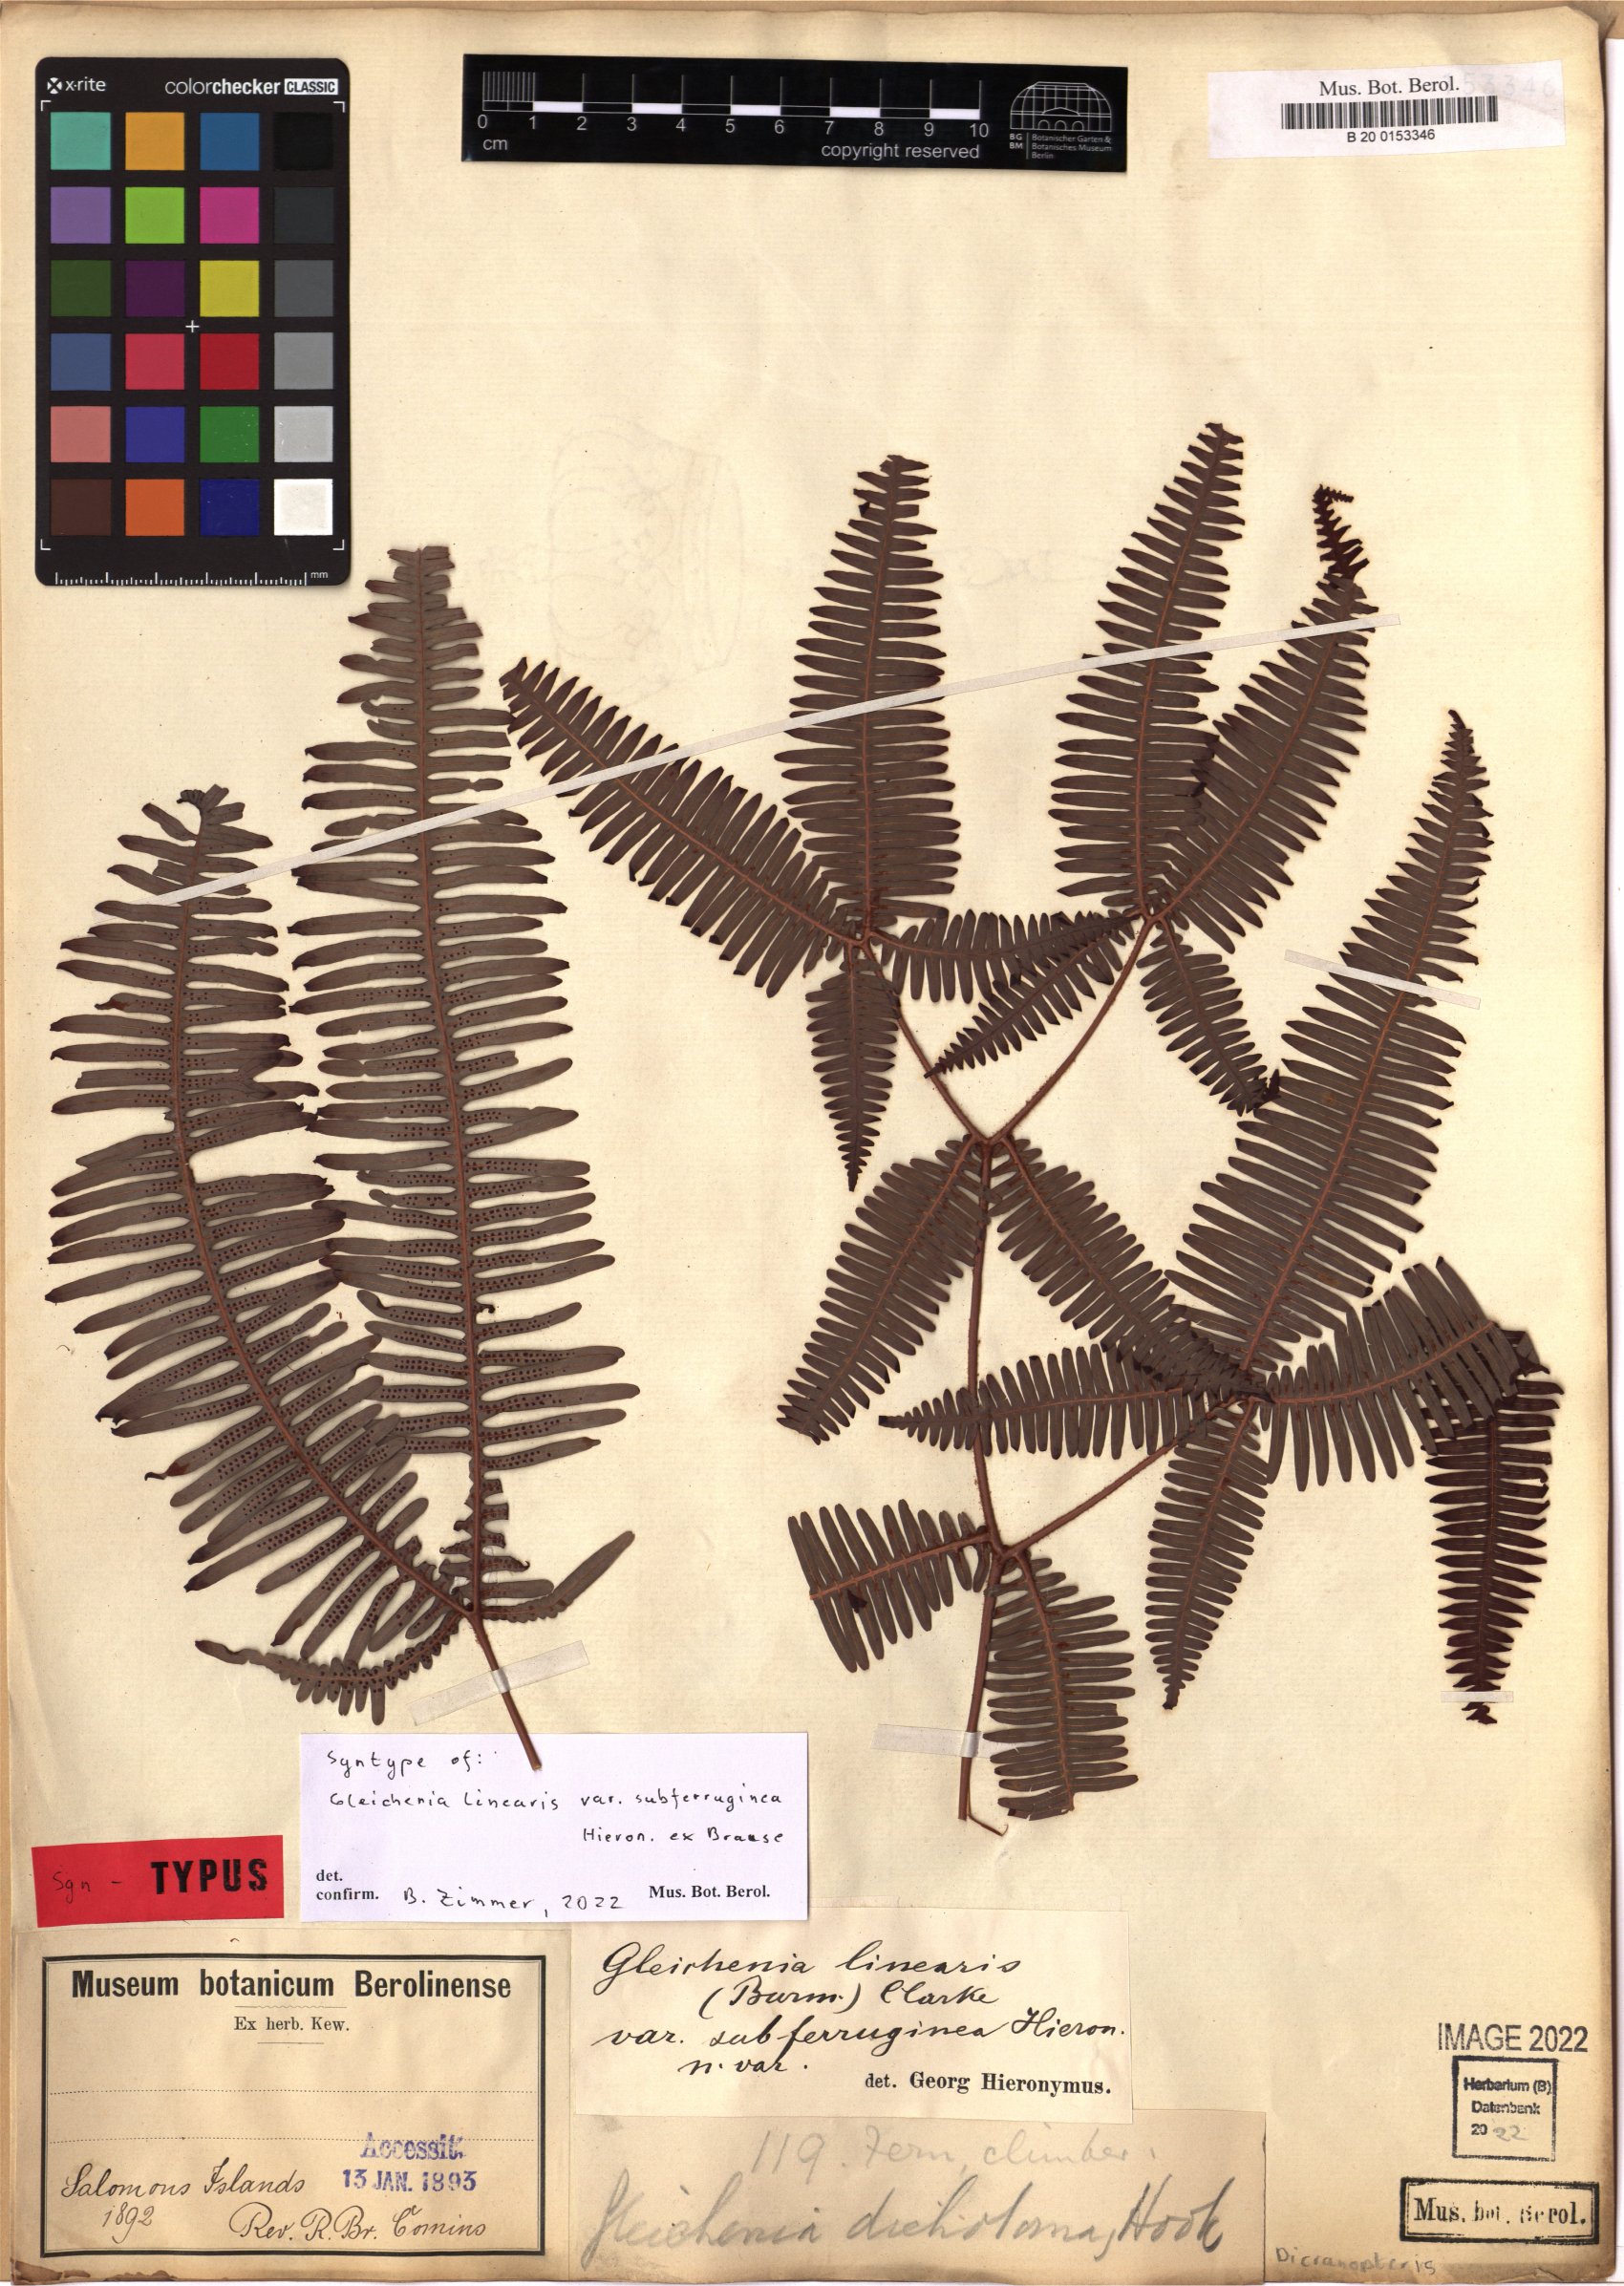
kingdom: Plantae
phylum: Tracheophyta
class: Polypodiopsida
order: Gleicheniales
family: Gleicheniaceae
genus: Dicranopteris
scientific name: Dicranopteris linearis
